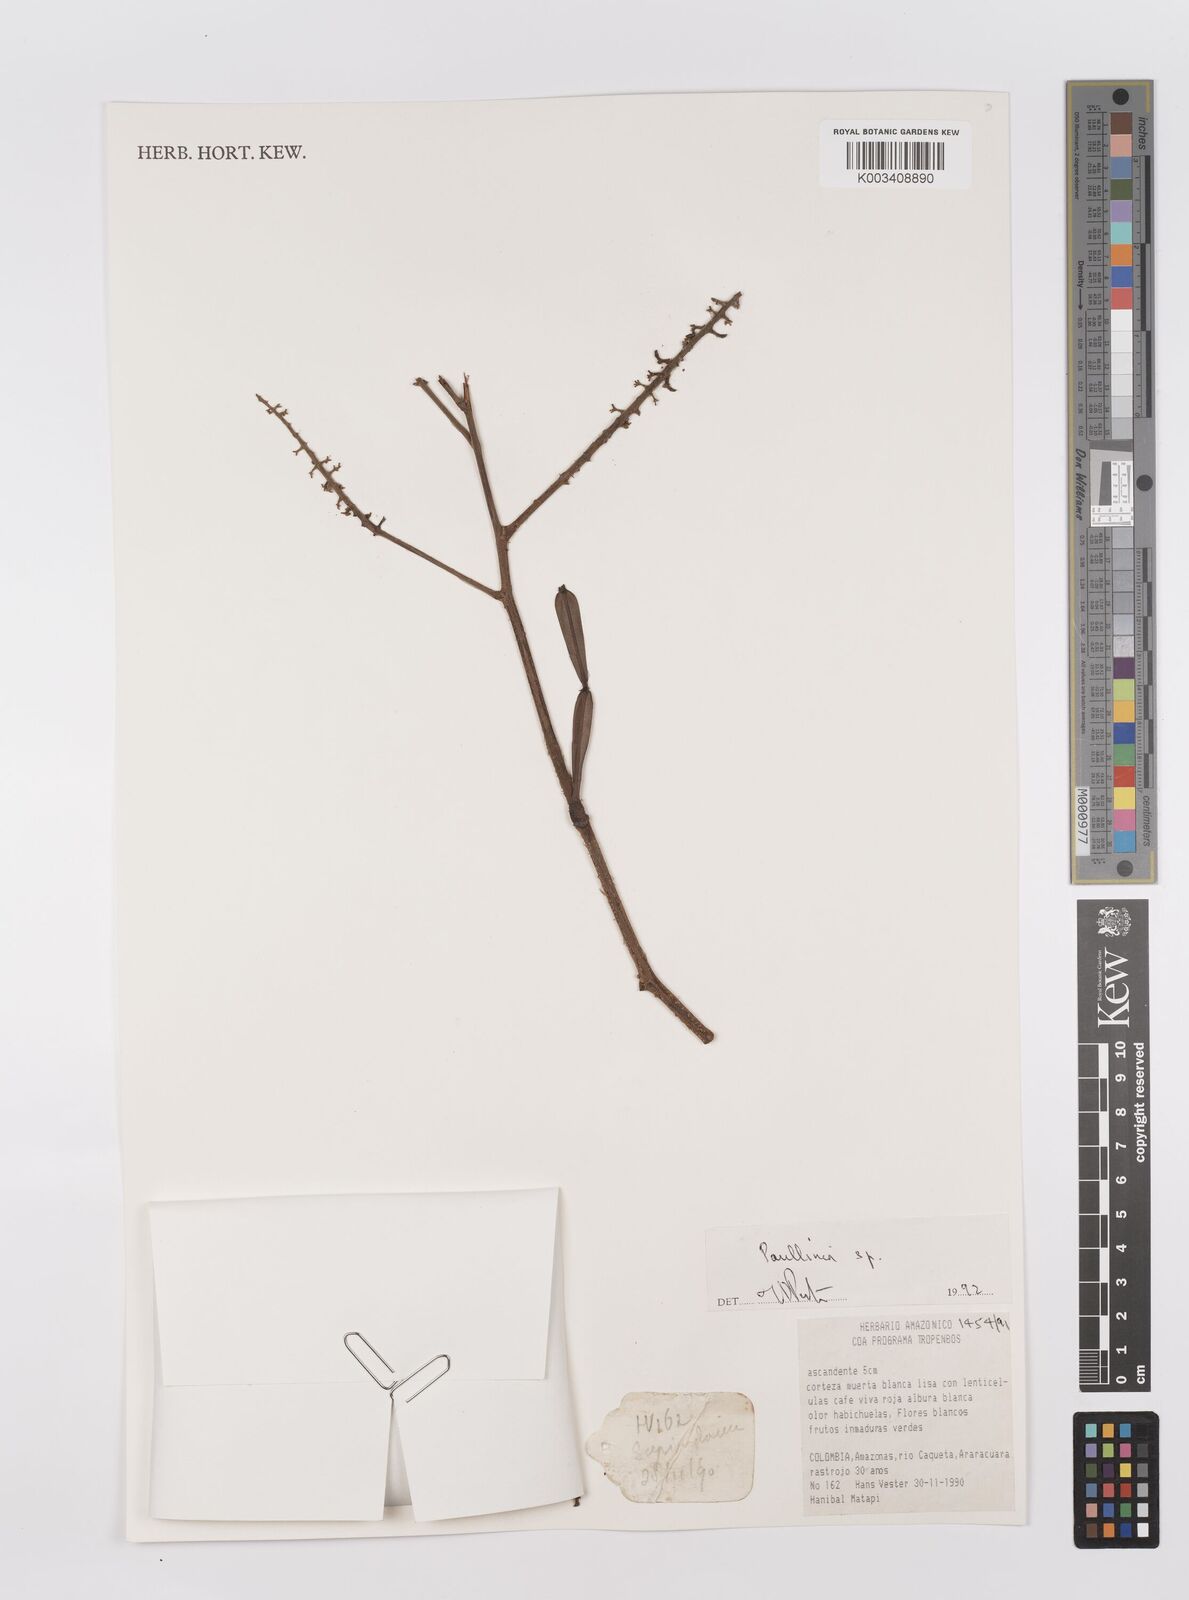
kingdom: Plantae
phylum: Tracheophyta
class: Magnoliopsida
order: Sapindales
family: Sapindaceae
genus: Paullinia
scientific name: Paullinia
